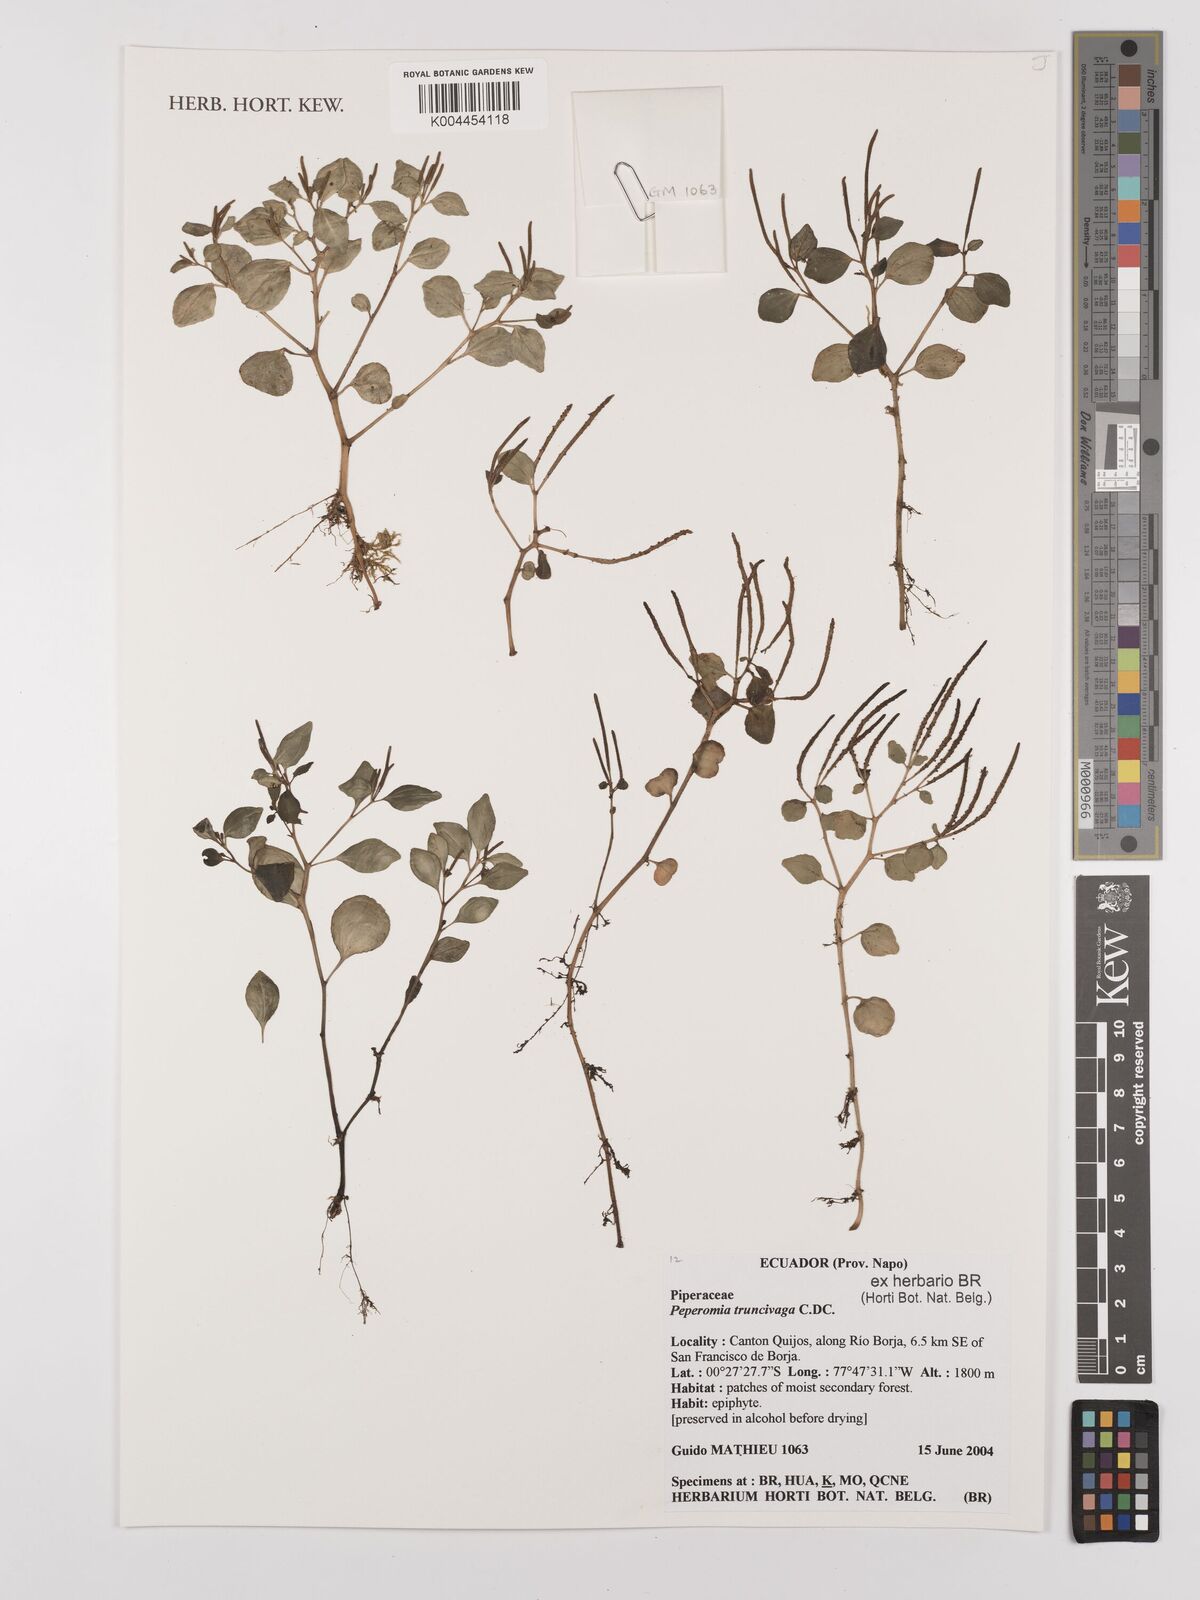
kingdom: Plantae
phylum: Tracheophyta
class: Magnoliopsida
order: Piperales
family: Piperaceae
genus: Peperomia
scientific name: Peperomia truncivaga
